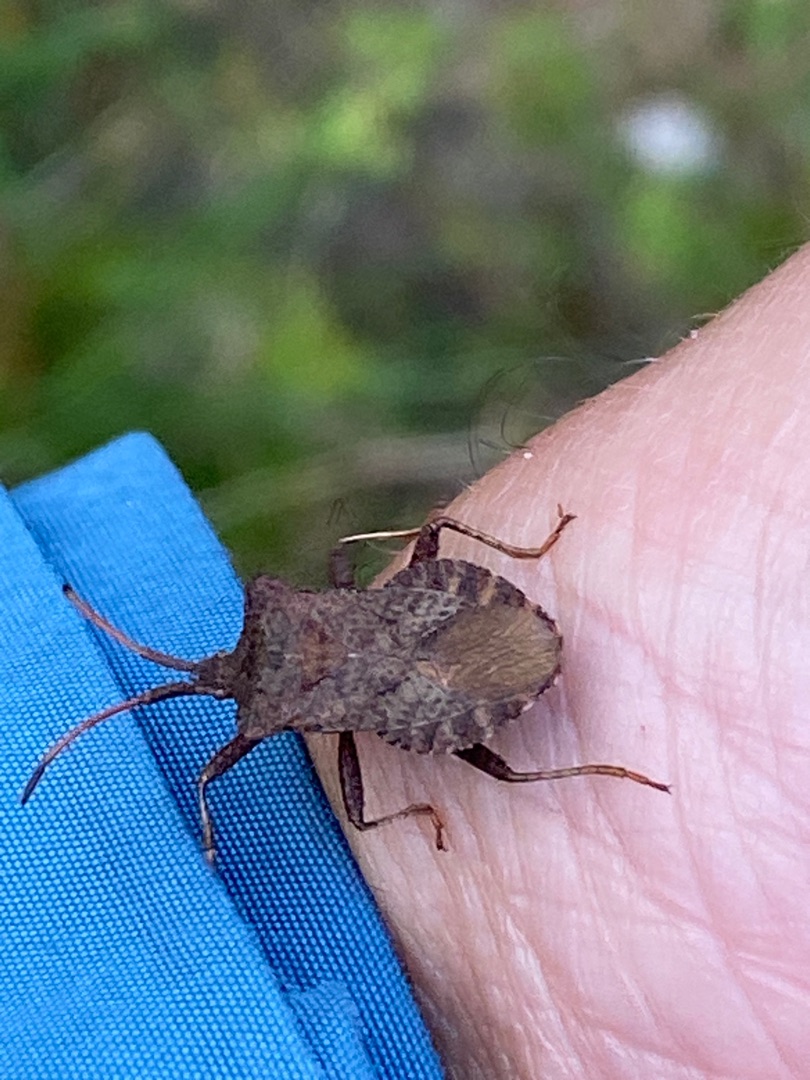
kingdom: Animalia
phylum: Arthropoda
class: Insecta
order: Hemiptera
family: Coreidae
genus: Coreus
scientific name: Coreus marginatus
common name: Skræppetæge
